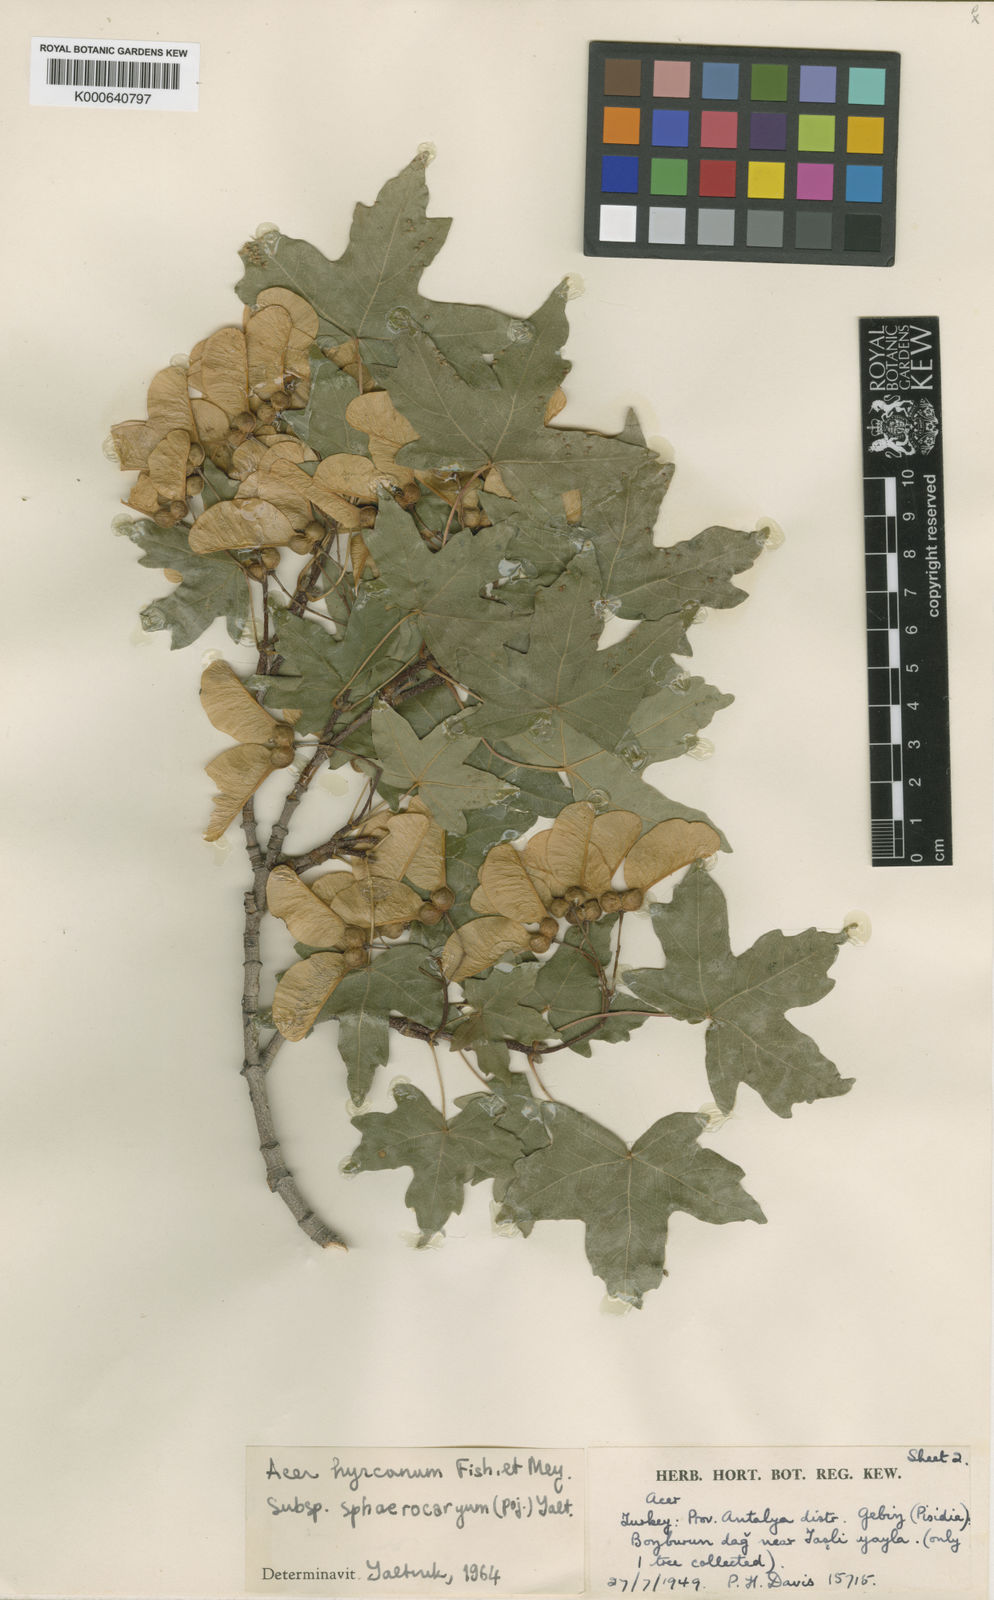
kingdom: Plantae
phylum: Tracheophyta
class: Magnoliopsida
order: Sapindales
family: Sapindaceae
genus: Acer
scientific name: Acer hyrcanum
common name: Balkan maple
